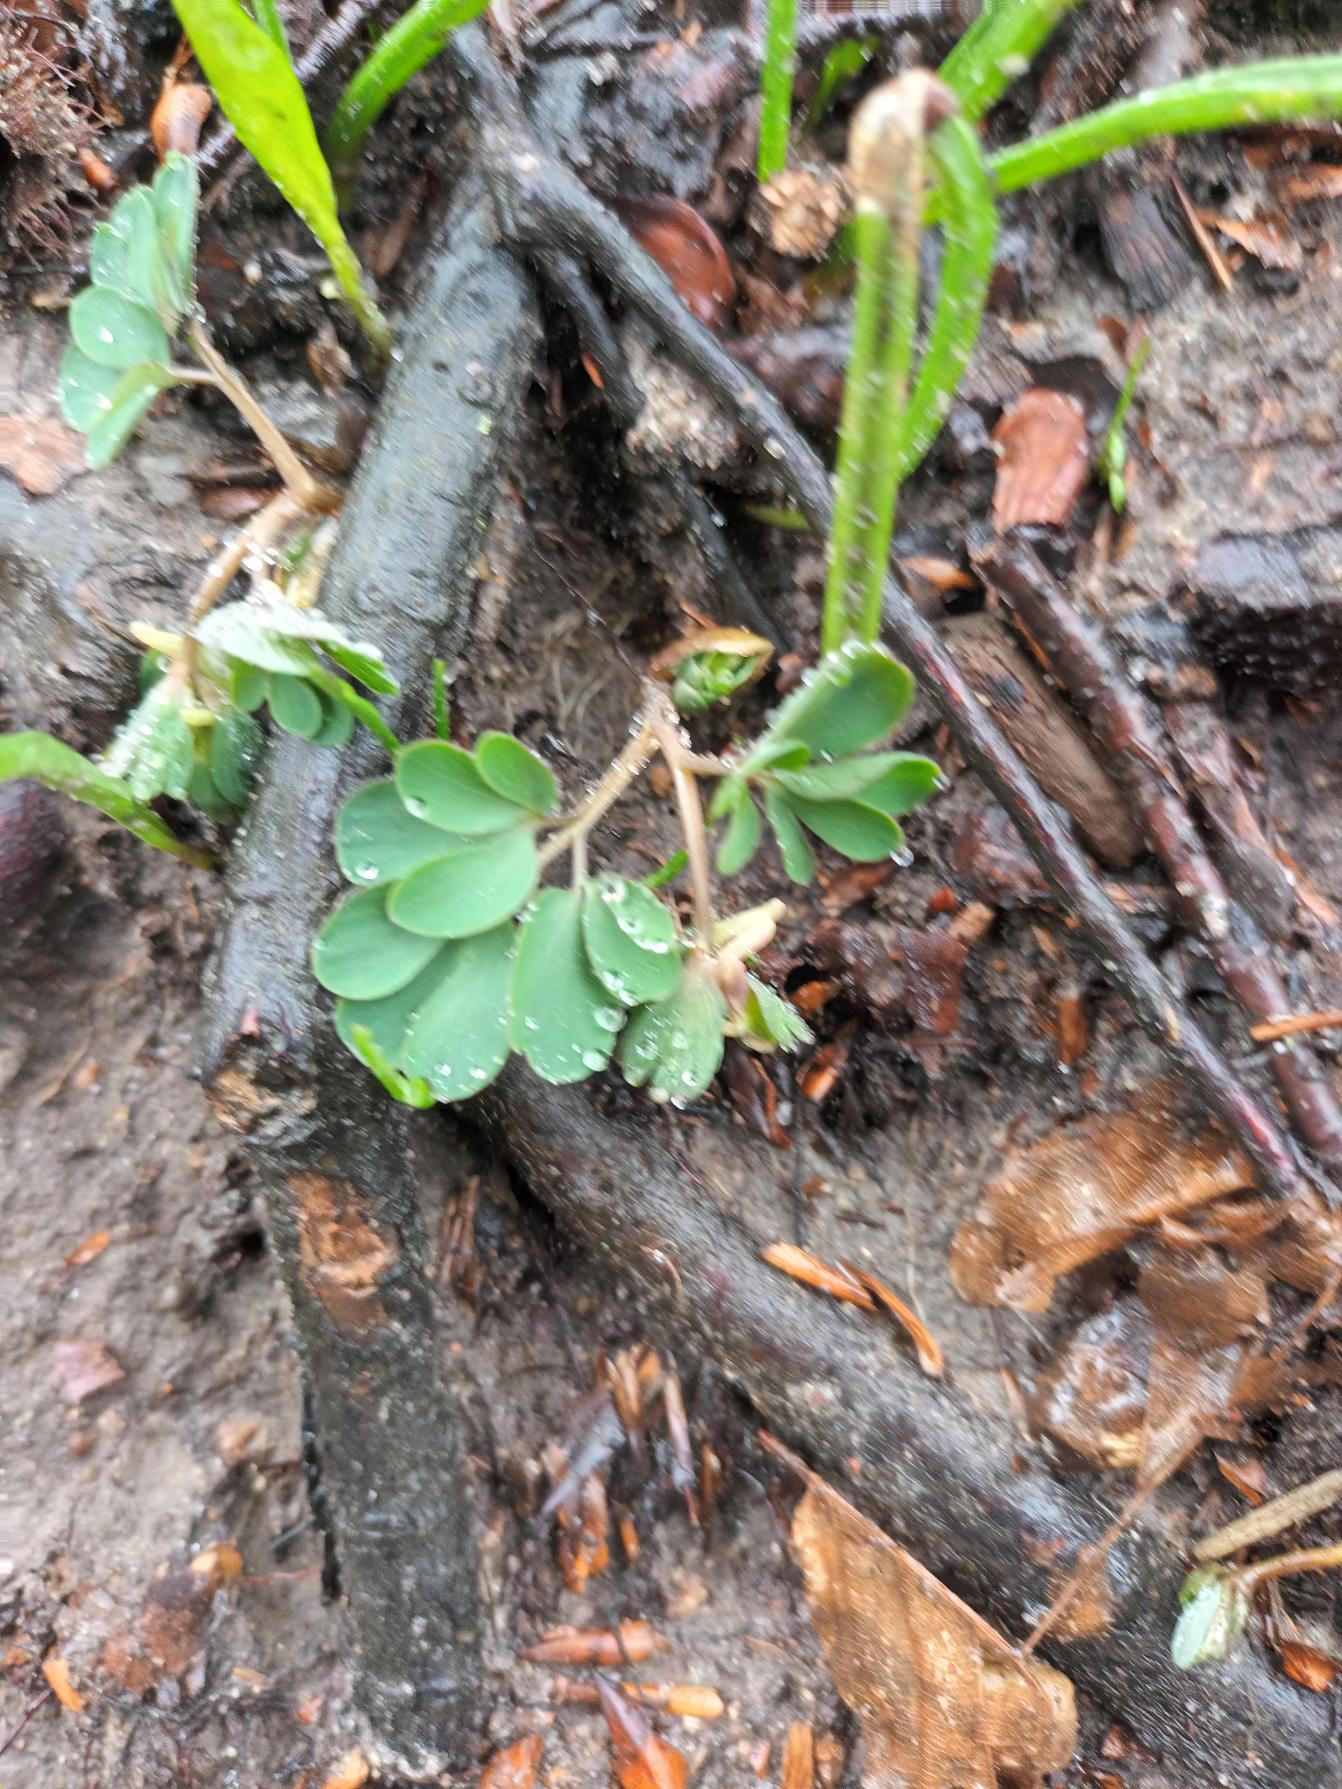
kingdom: Plantae
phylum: Tracheophyta
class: Magnoliopsida
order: Ranunculales
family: Papaveraceae
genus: Corydalis
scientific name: Corydalis pumila
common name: Finger-lærkespore
